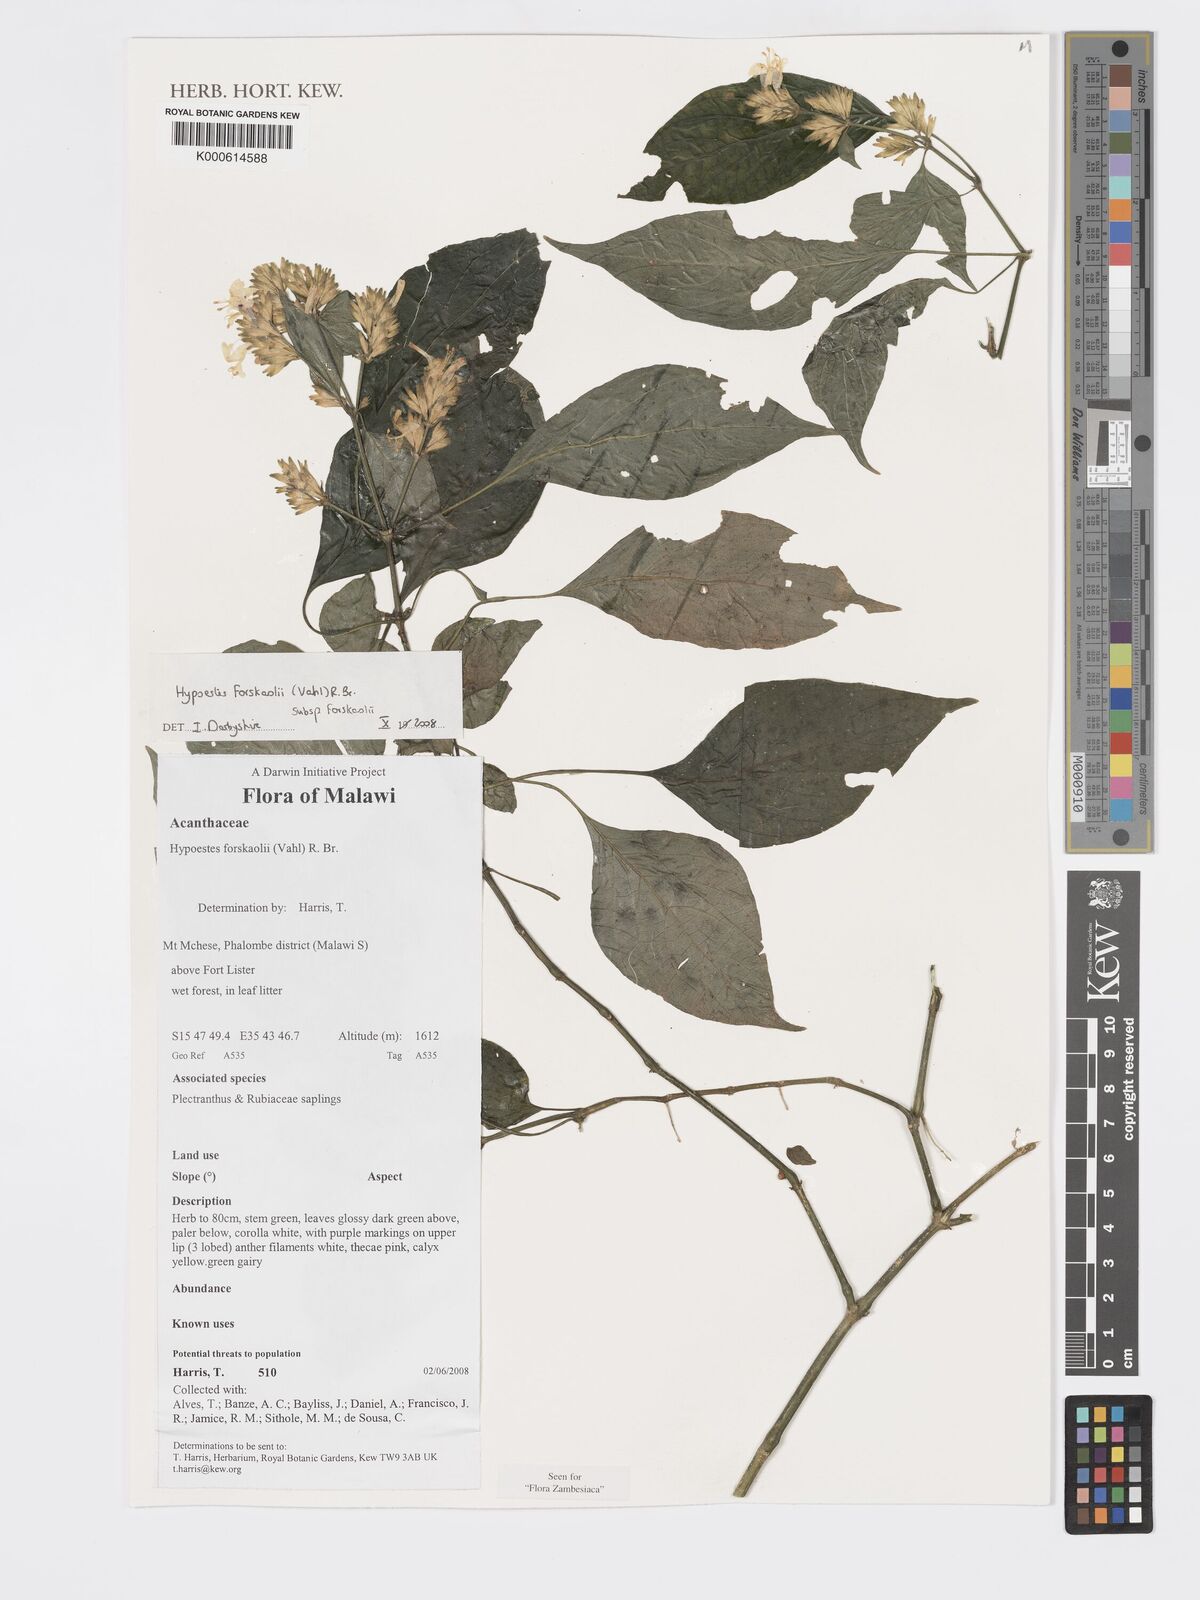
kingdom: Plantae
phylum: Tracheophyta
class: Magnoliopsida
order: Lamiales
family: Acanthaceae
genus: Hypoestes
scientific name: Hypoestes forskaolii
